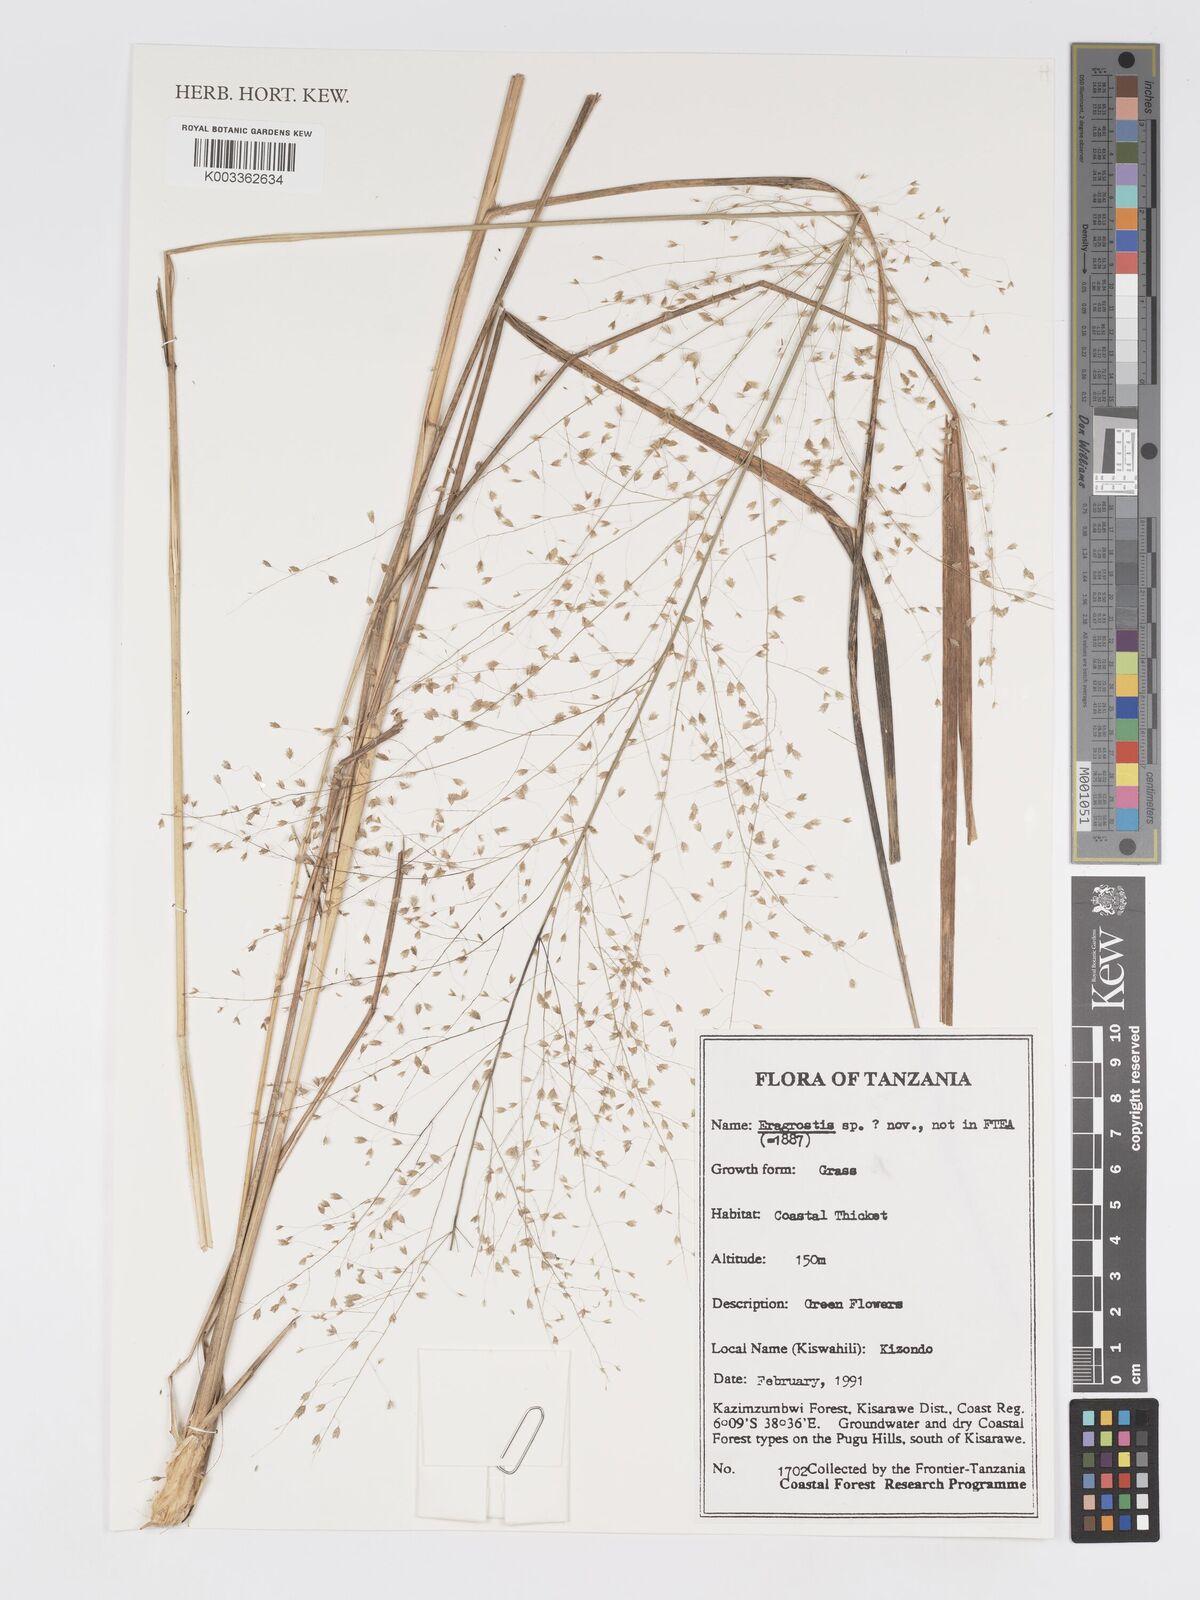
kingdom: Plantae
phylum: Tracheophyta
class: Liliopsida
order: Poales
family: Poaceae
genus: Eragrostis
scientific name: Eragrostis
